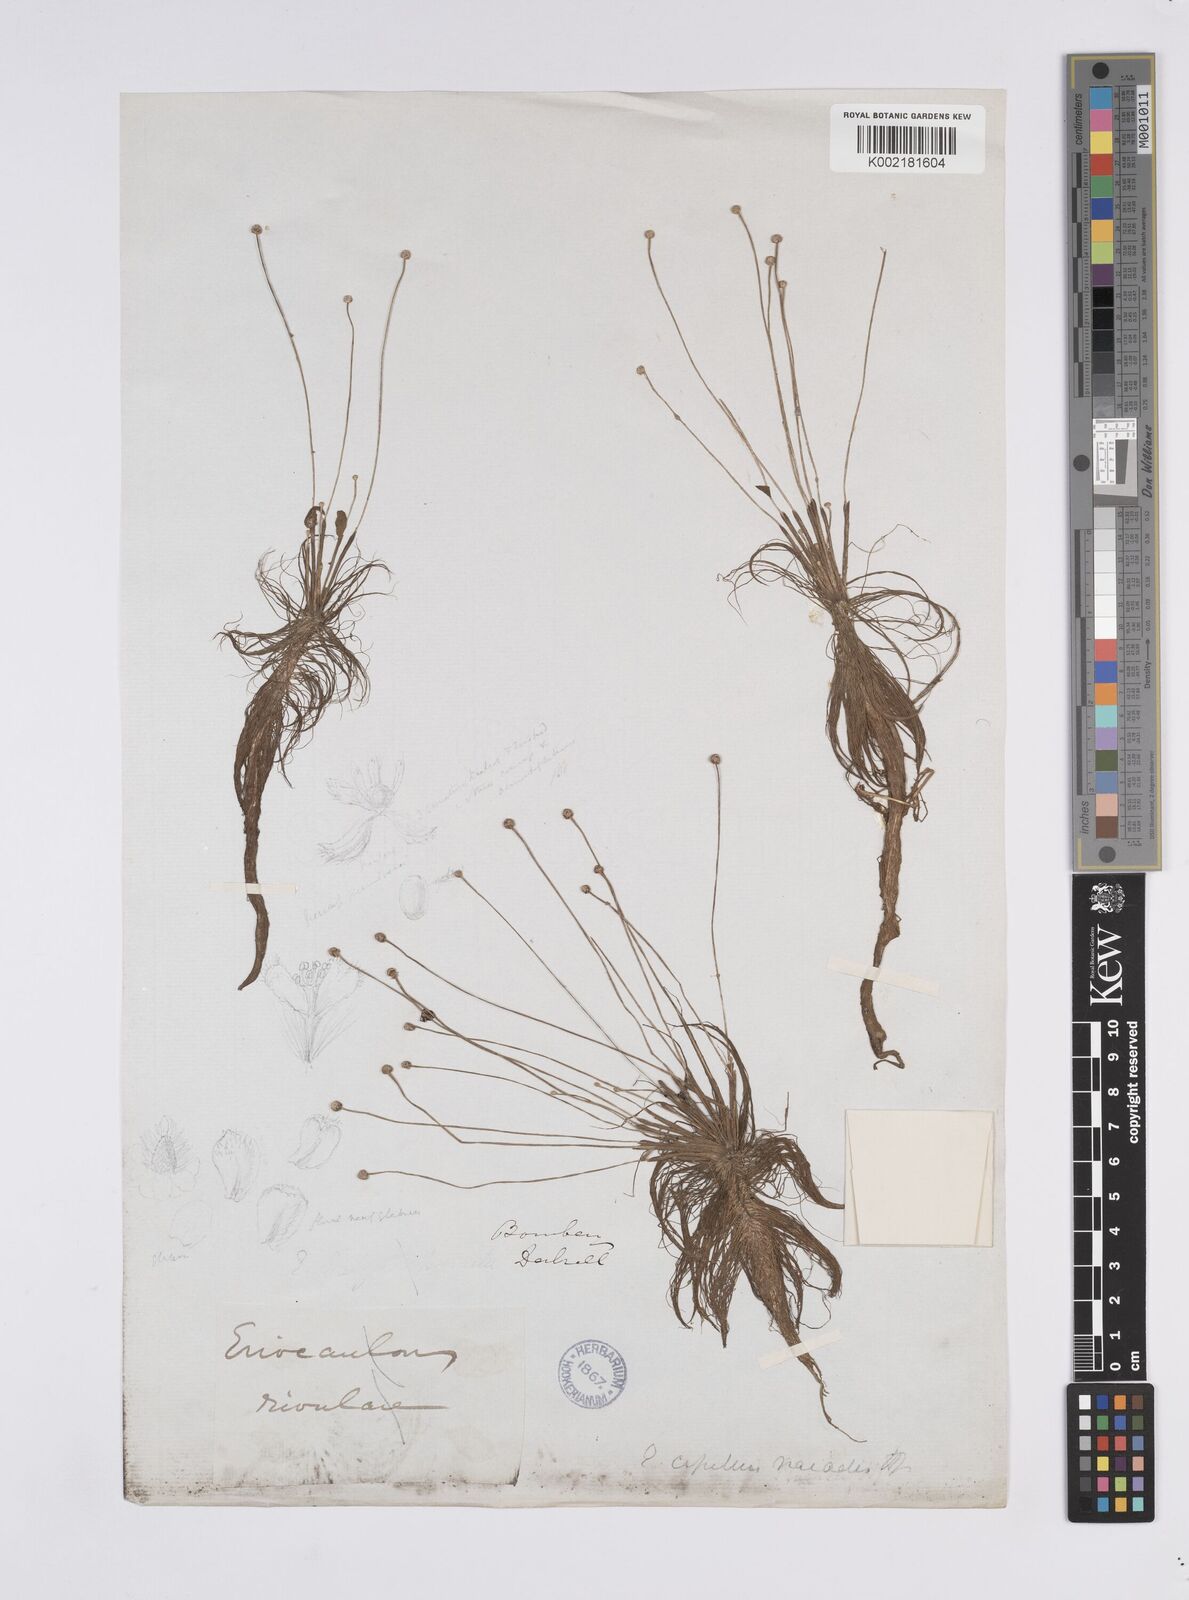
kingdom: Plantae
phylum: Tracheophyta
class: Liliopsida
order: Poales
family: Eriocaulaceae
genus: Eriocaulon
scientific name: Eriocaulon setaceum
